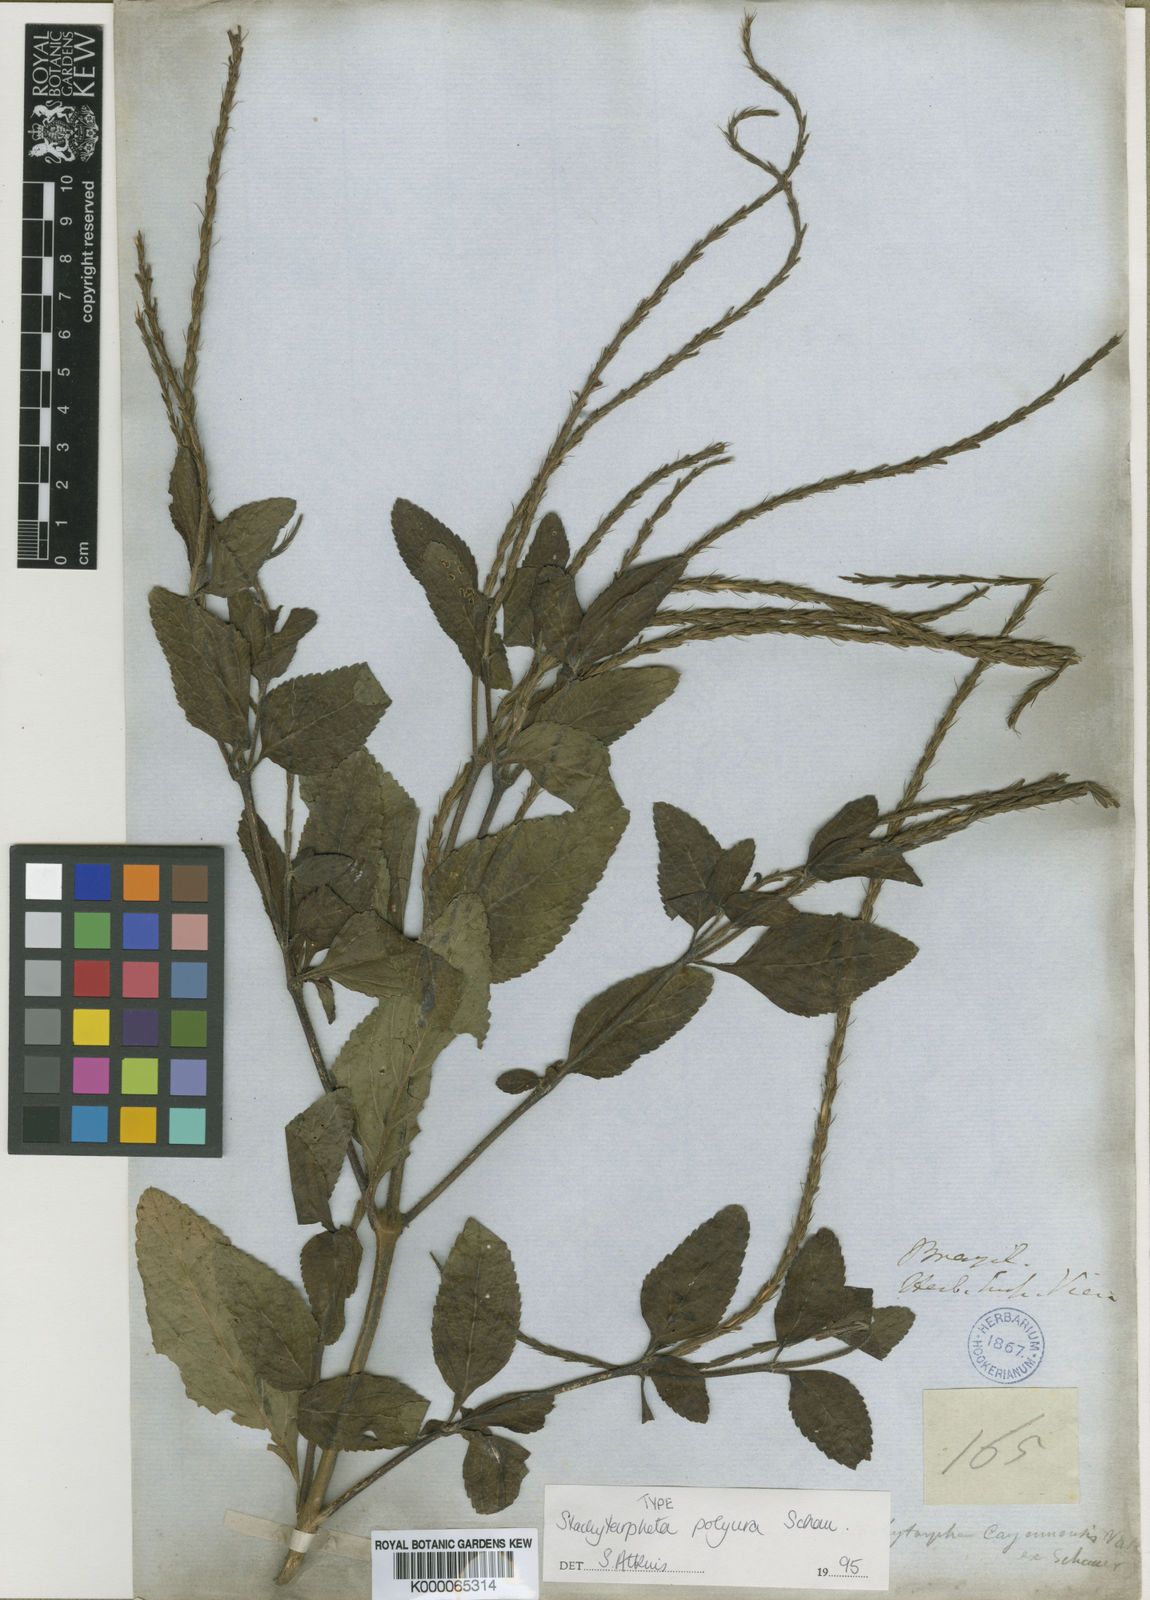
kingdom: Plantae
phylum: Tracheophyta
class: Magnoliopsida
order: Lamiales
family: Verbenaceae
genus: Stachytarpheta
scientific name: Stachytarpheta polyura
